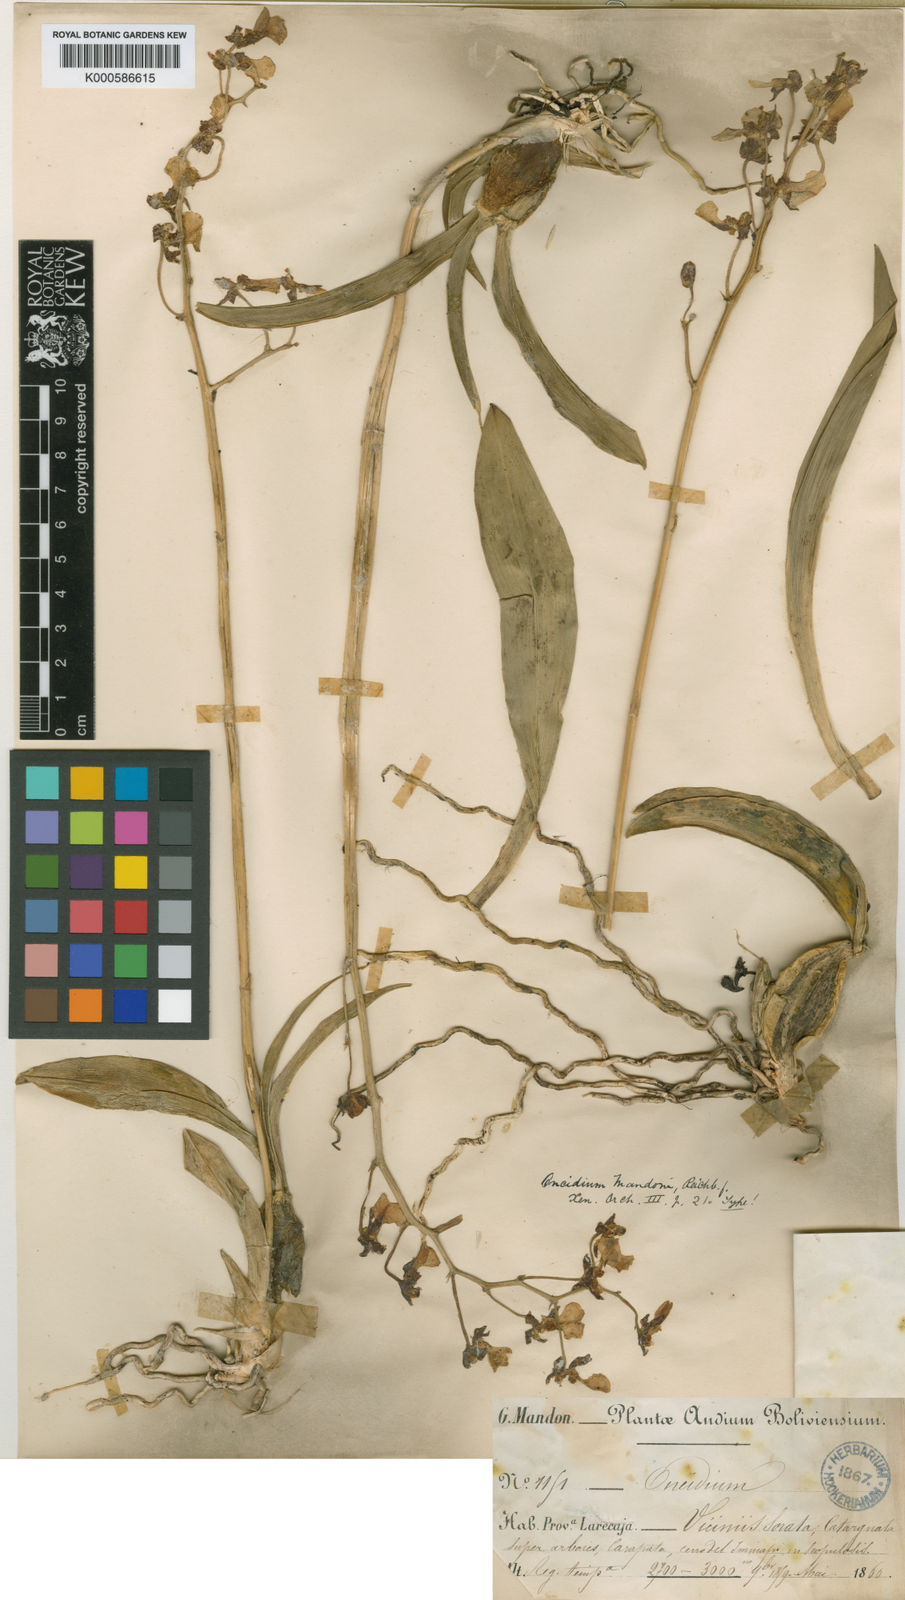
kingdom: Plantae
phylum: Tracheophyta
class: Liliopsida
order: Asparagales
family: Orchidaceae
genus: Gomesa
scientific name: Gomesa ramosa
